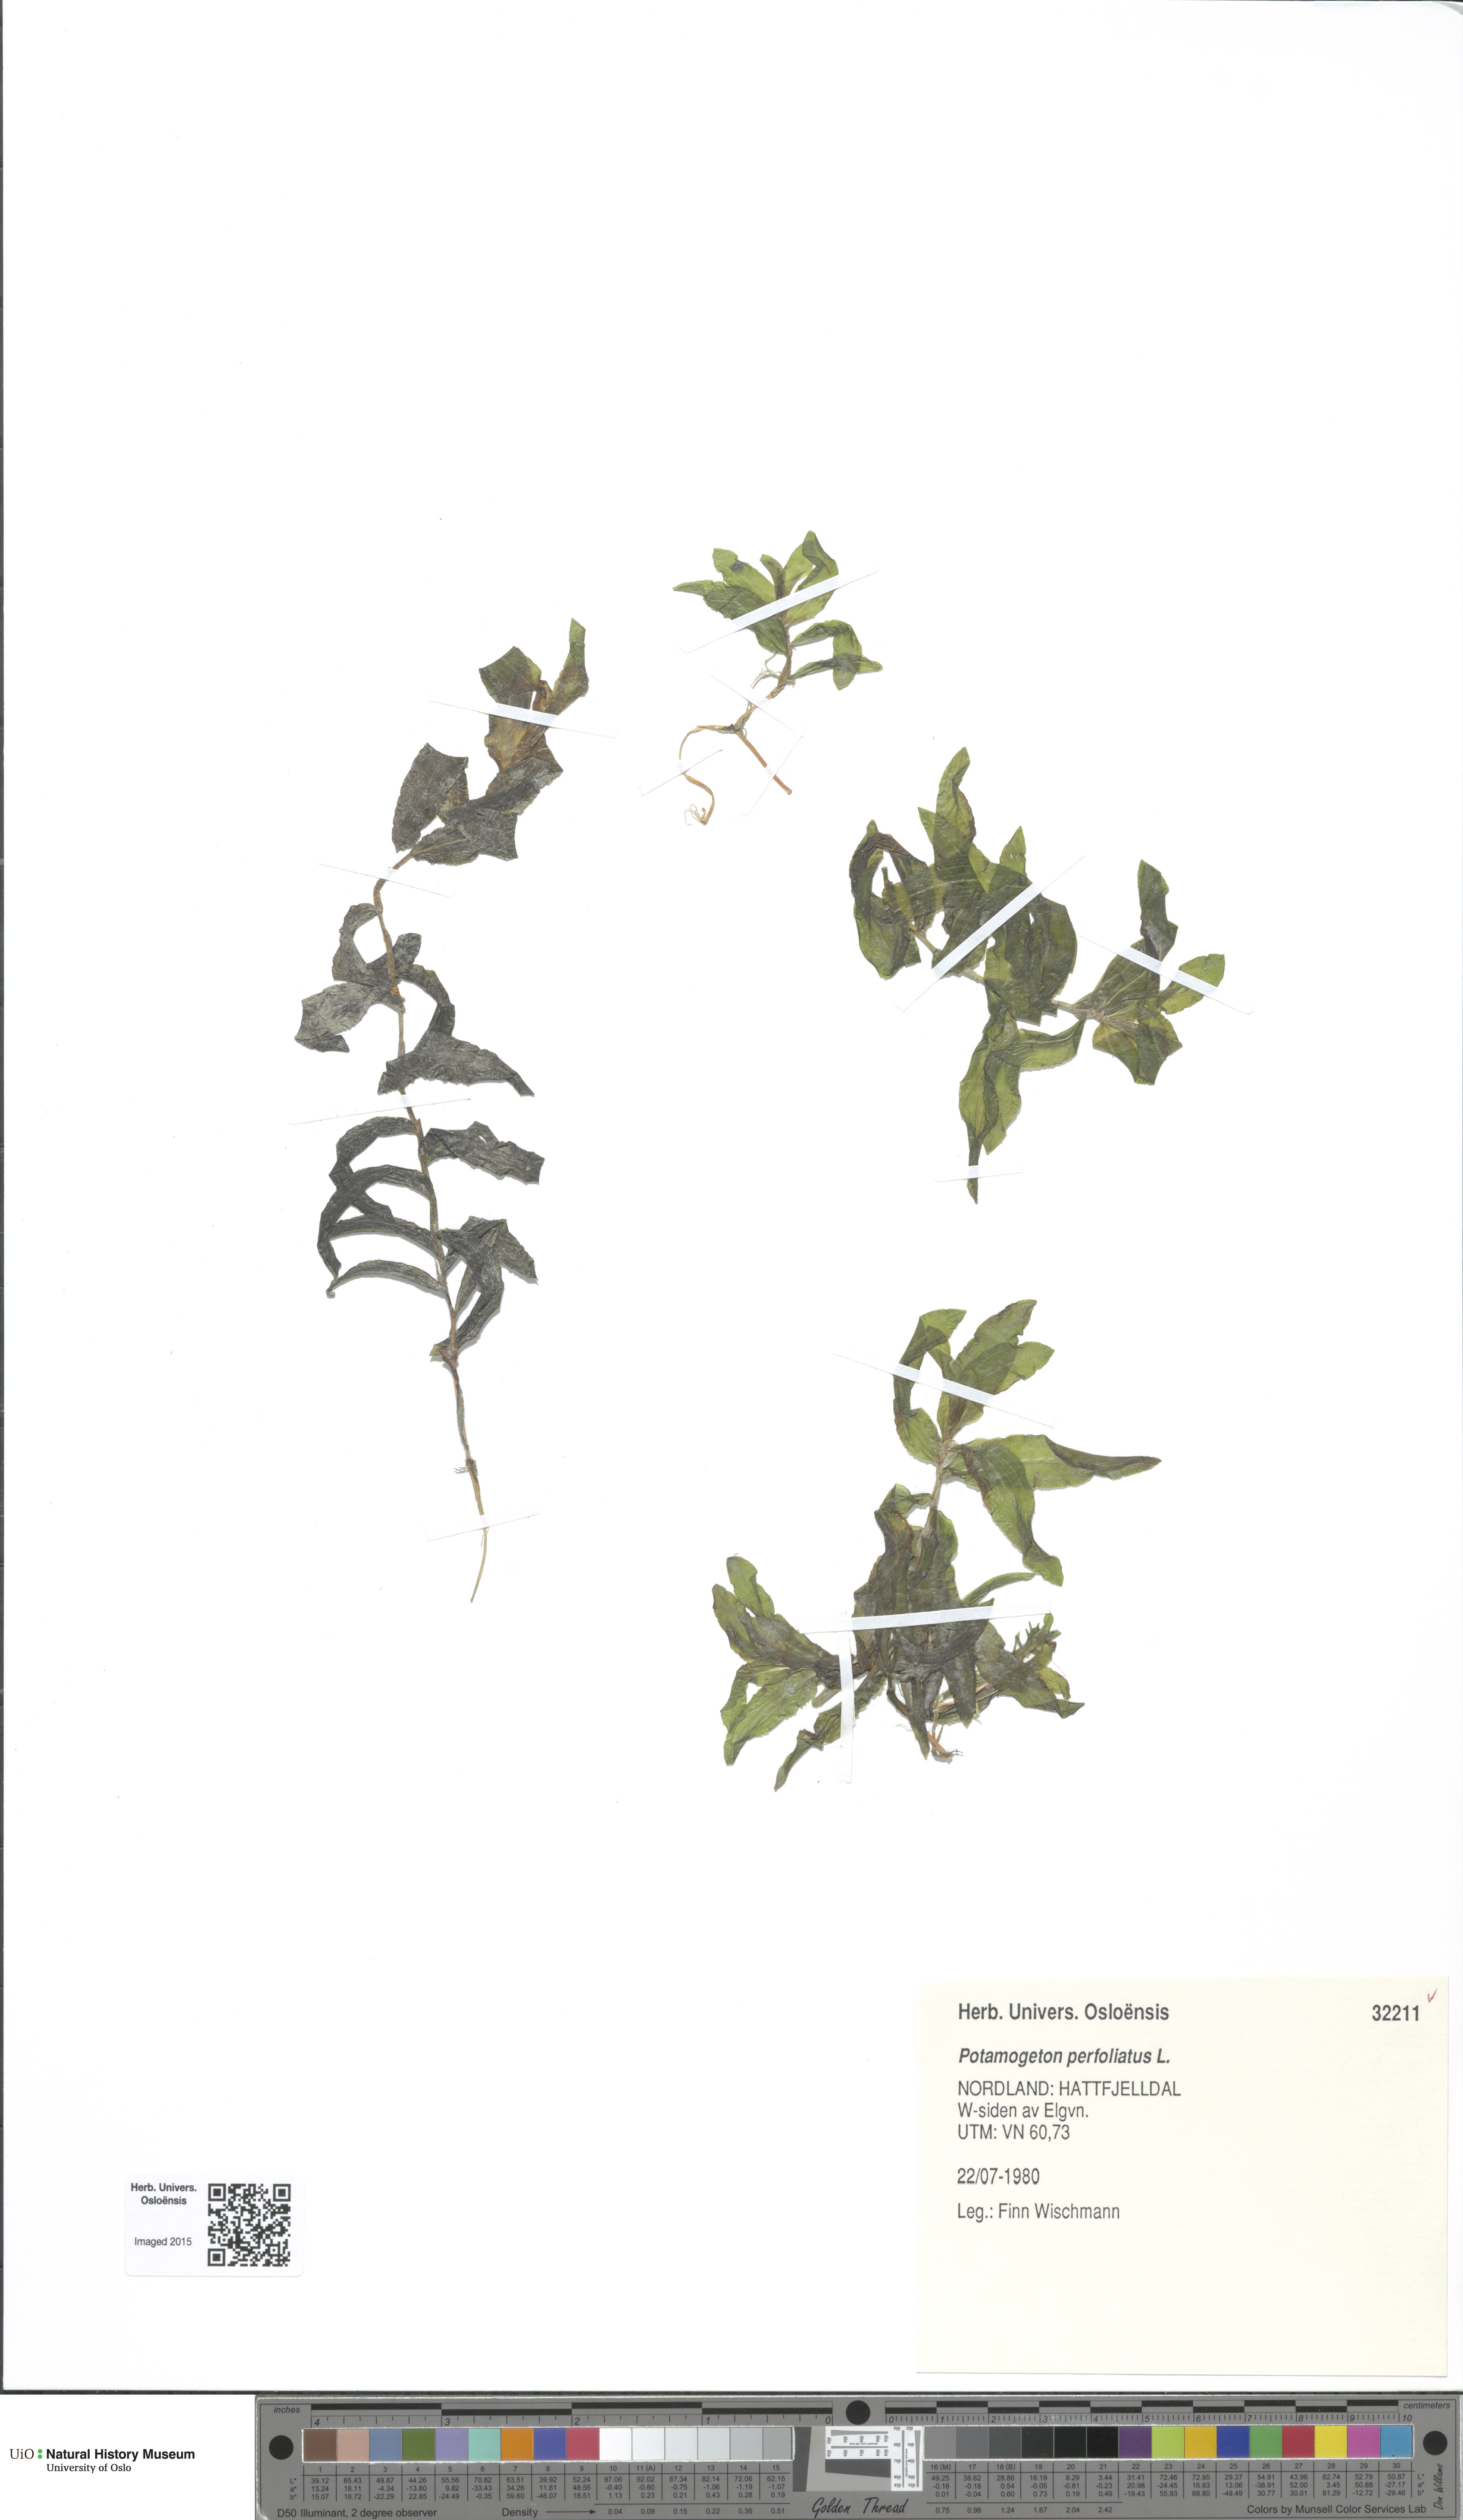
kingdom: Plantae
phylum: Tracheophyta
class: Liliopsida
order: Alismatales
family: Potamogetonaceae
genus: Potamogeton
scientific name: Potamogeton nitens
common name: Pondweed
